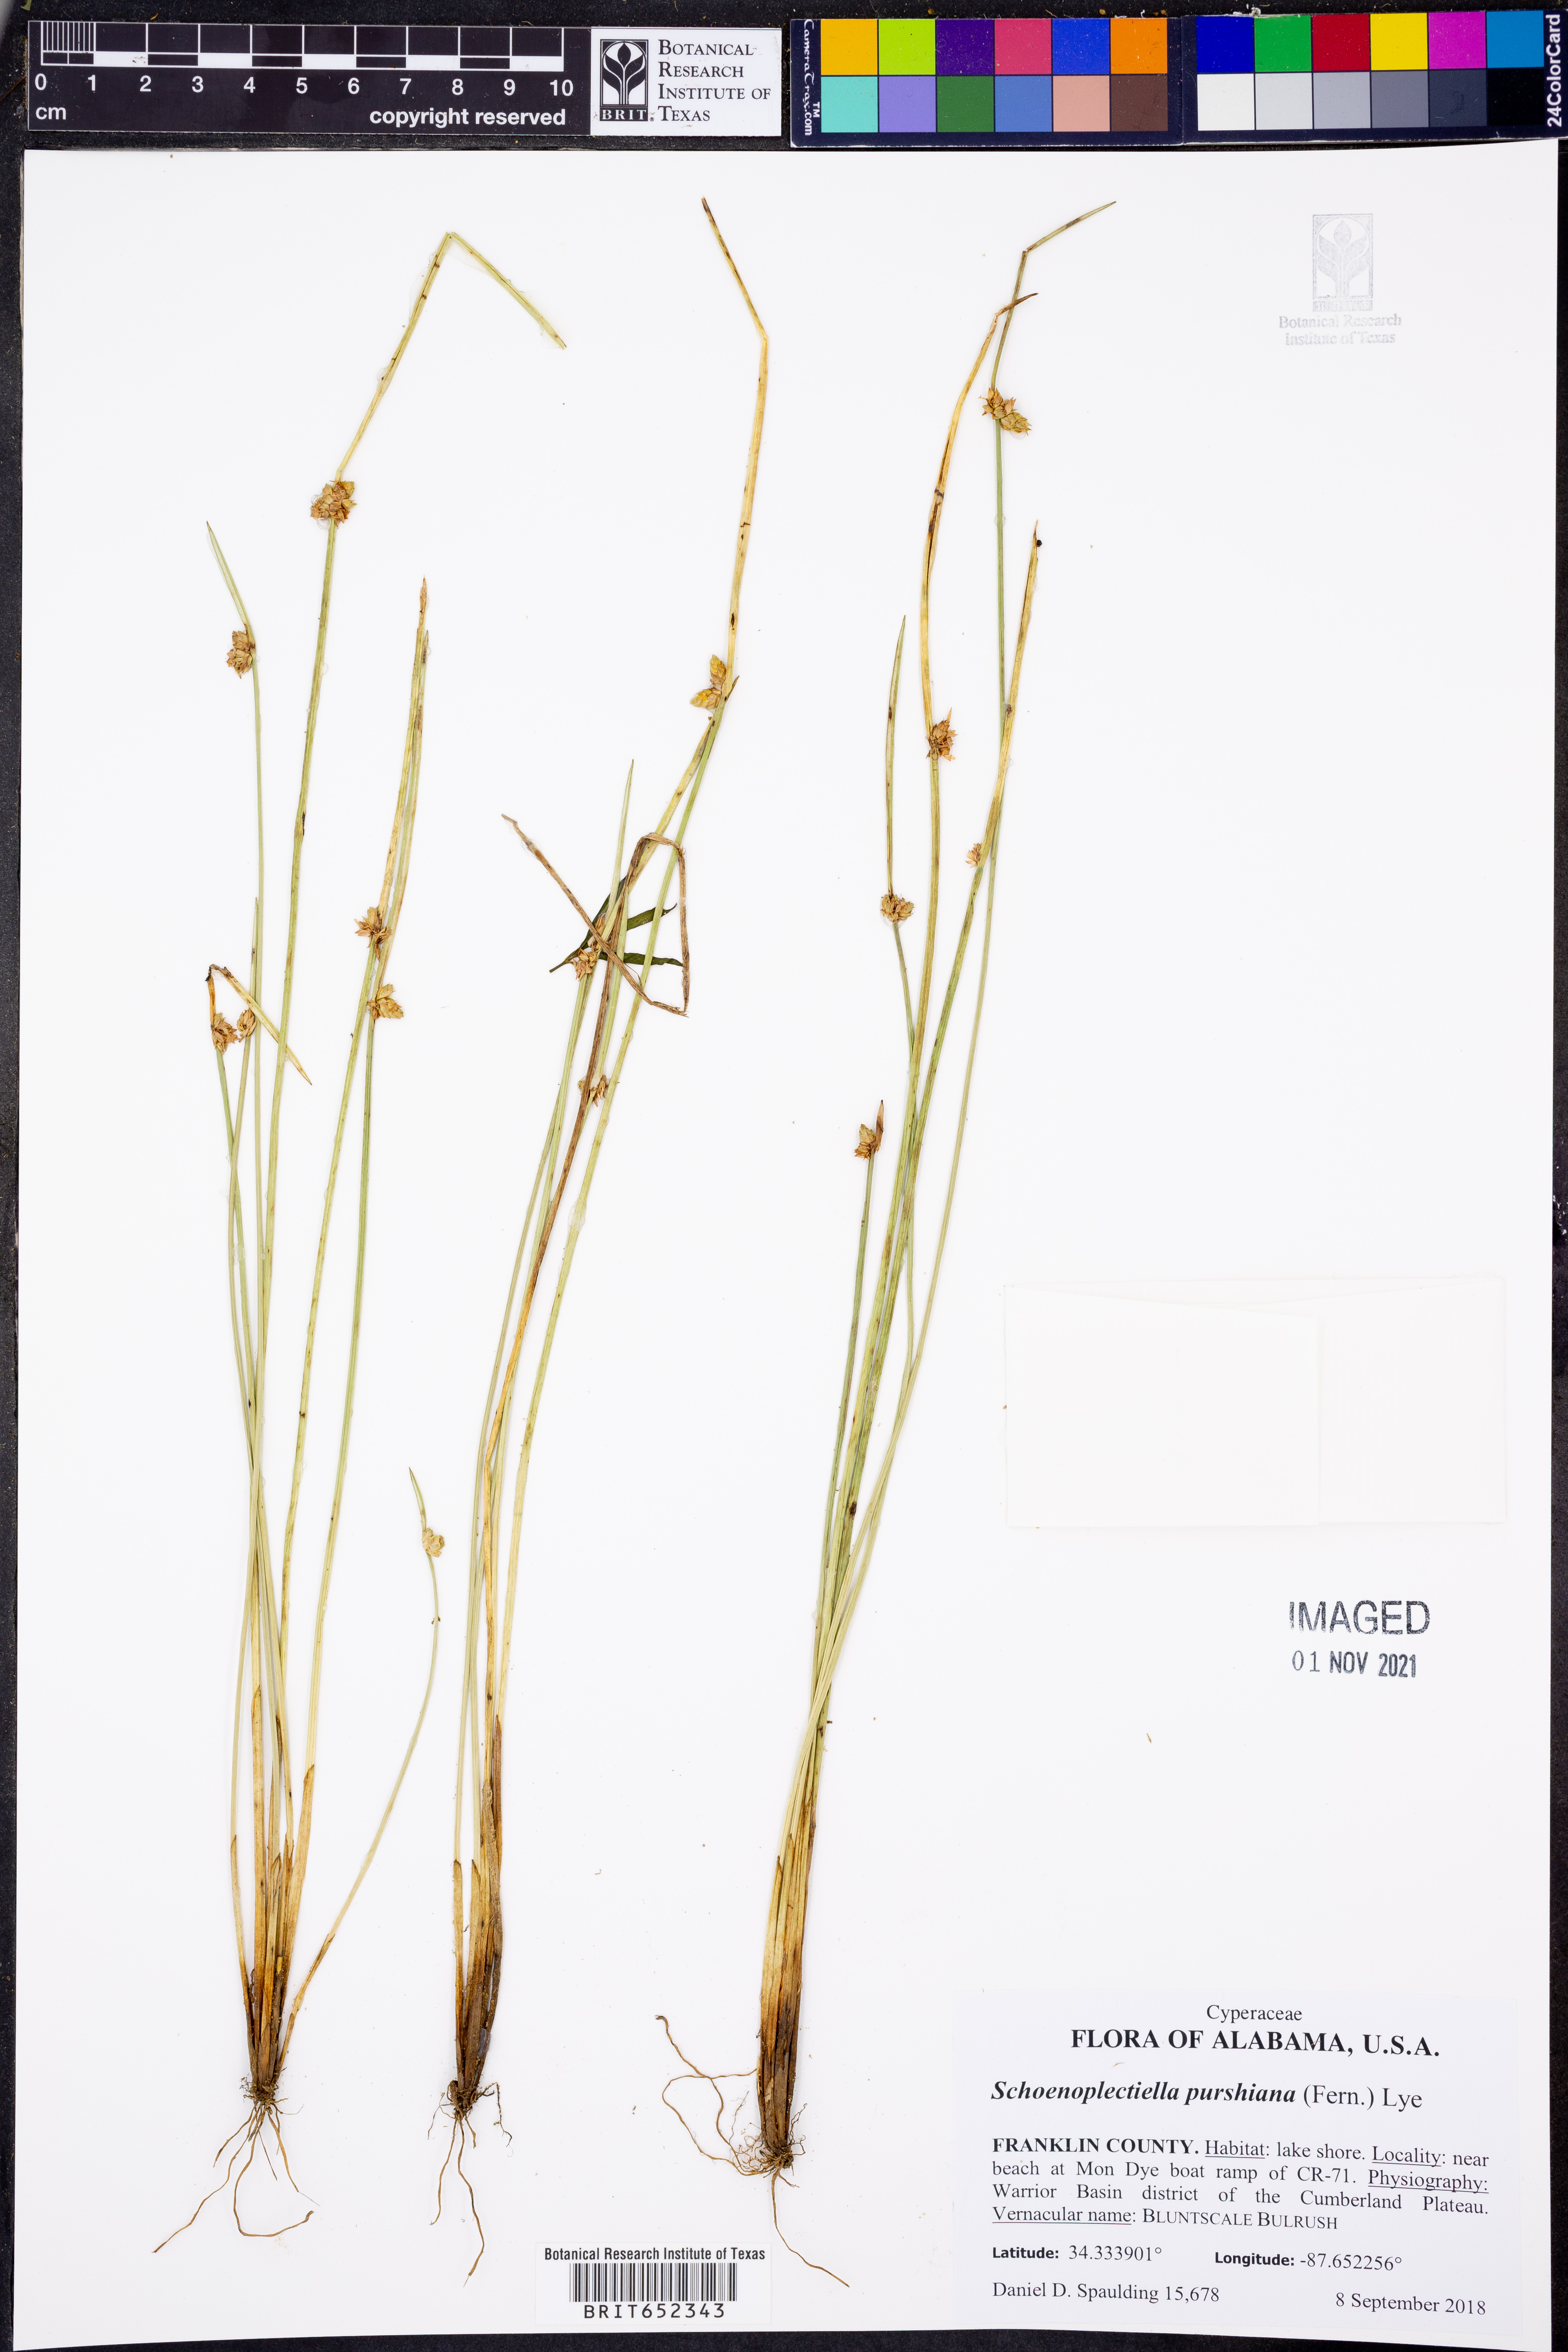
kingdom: Plantae
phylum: Tracheophyta
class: Liliopsida
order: Poales
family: Cyperaceae
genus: Schoenoplectiella
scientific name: Schoenoplectiella purshiana
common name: Weak-stalked bulrush
